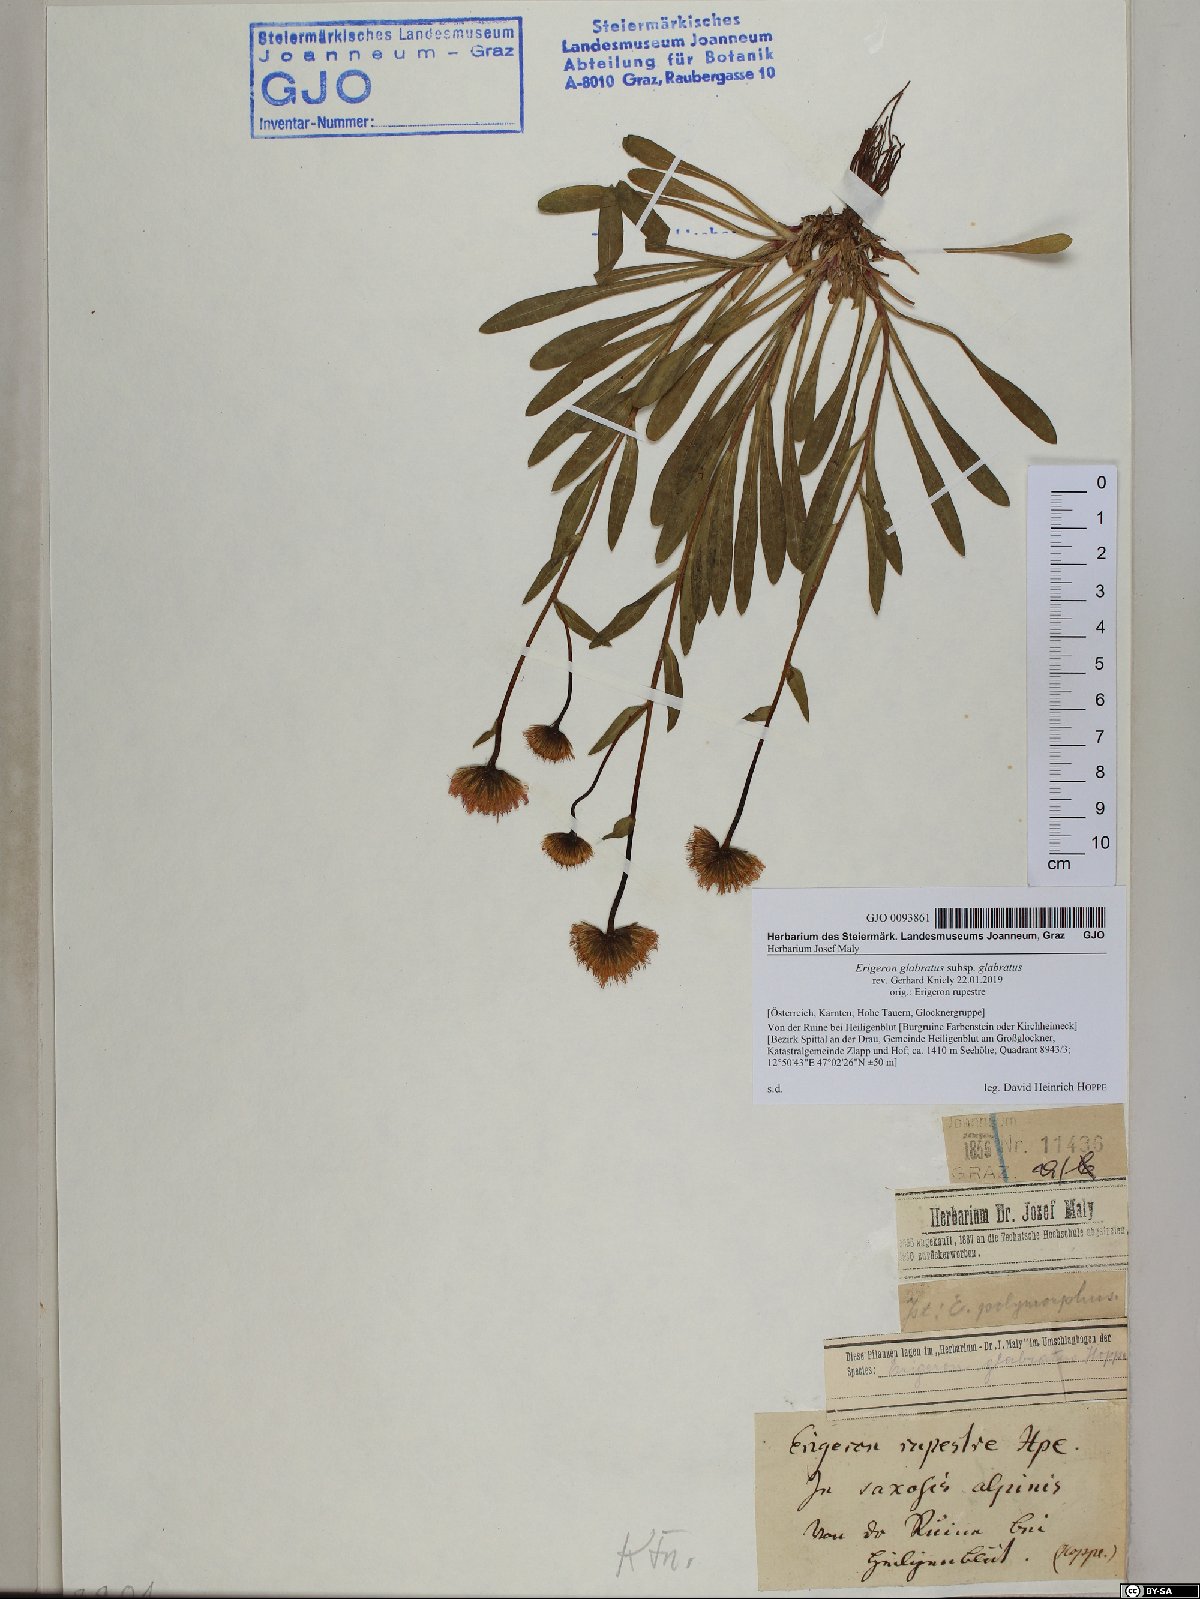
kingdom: Plantae
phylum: Tracheophyta
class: Magnoliopsida
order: Asterales
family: Asteraceae
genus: Erigeron
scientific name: Erigeron glabratus
